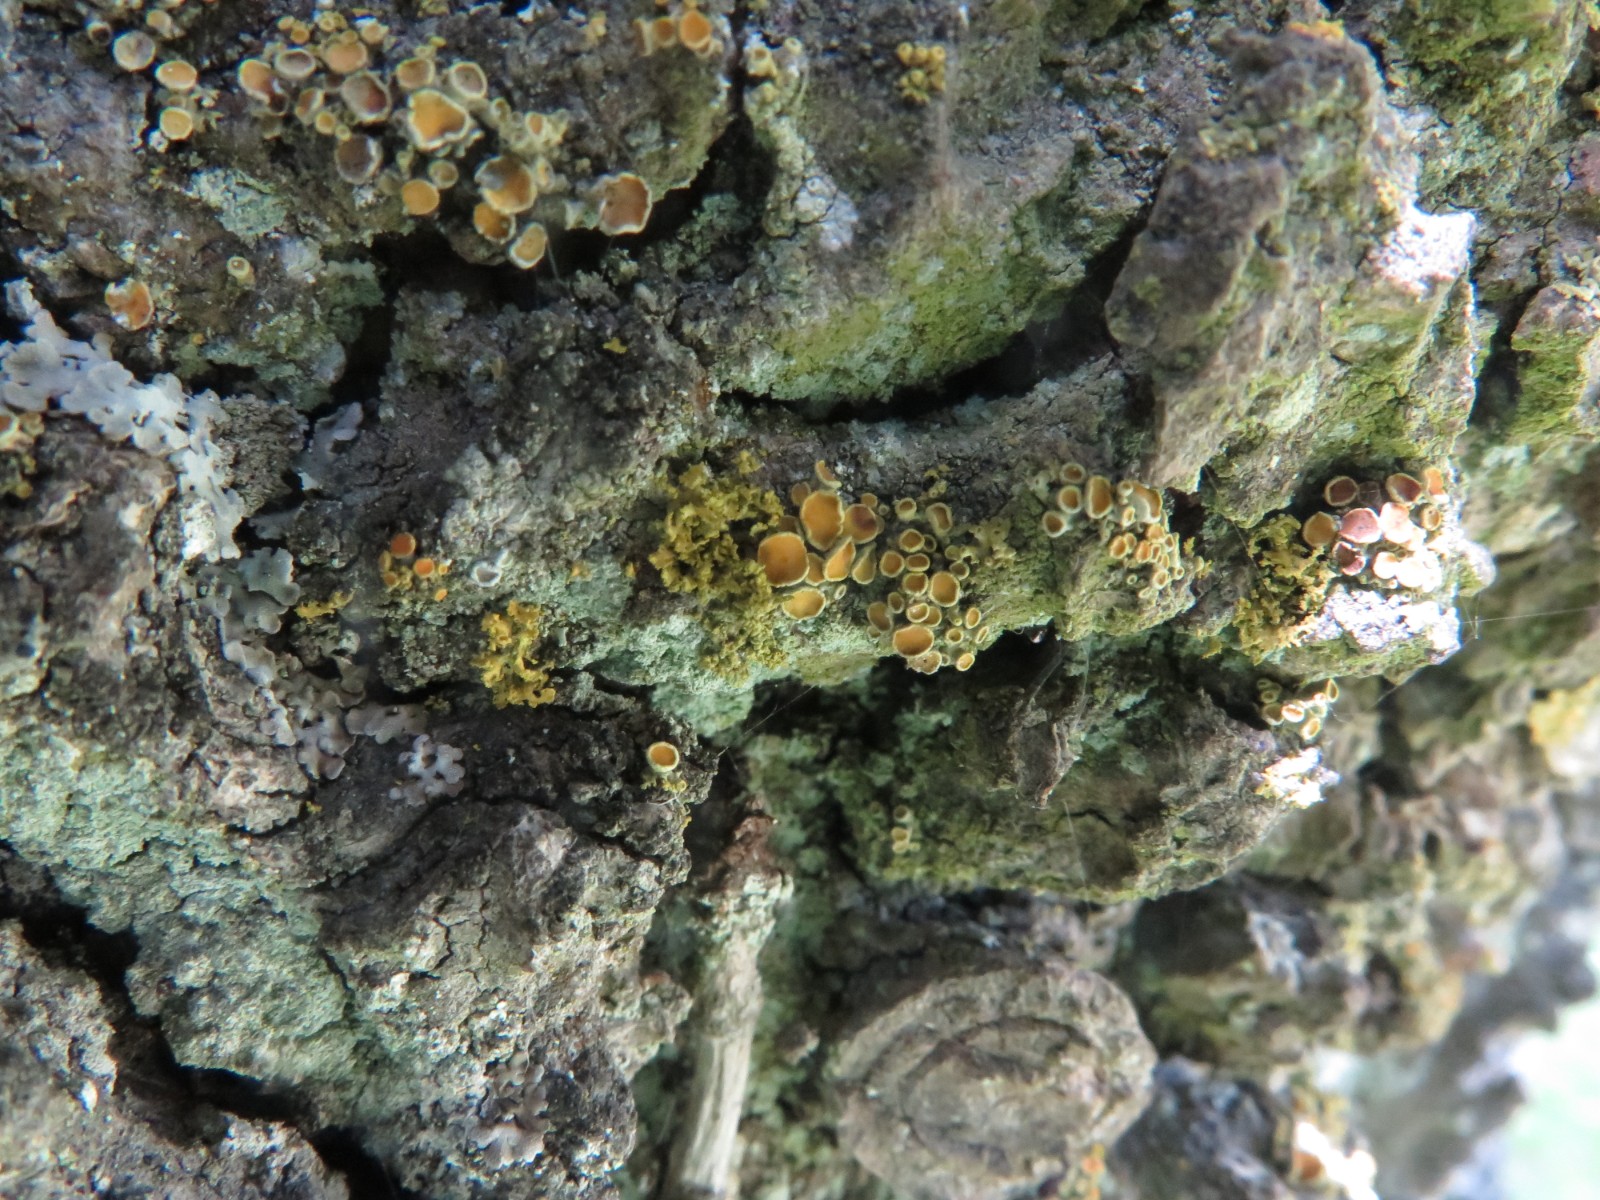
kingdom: Fungi
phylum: Ascomycota
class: Lecanoromycetes
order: Teloschistales
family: Teloschistaceae
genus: Polycauliona
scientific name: Polycauliona polycarpa
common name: mangefrugtet orangelav
